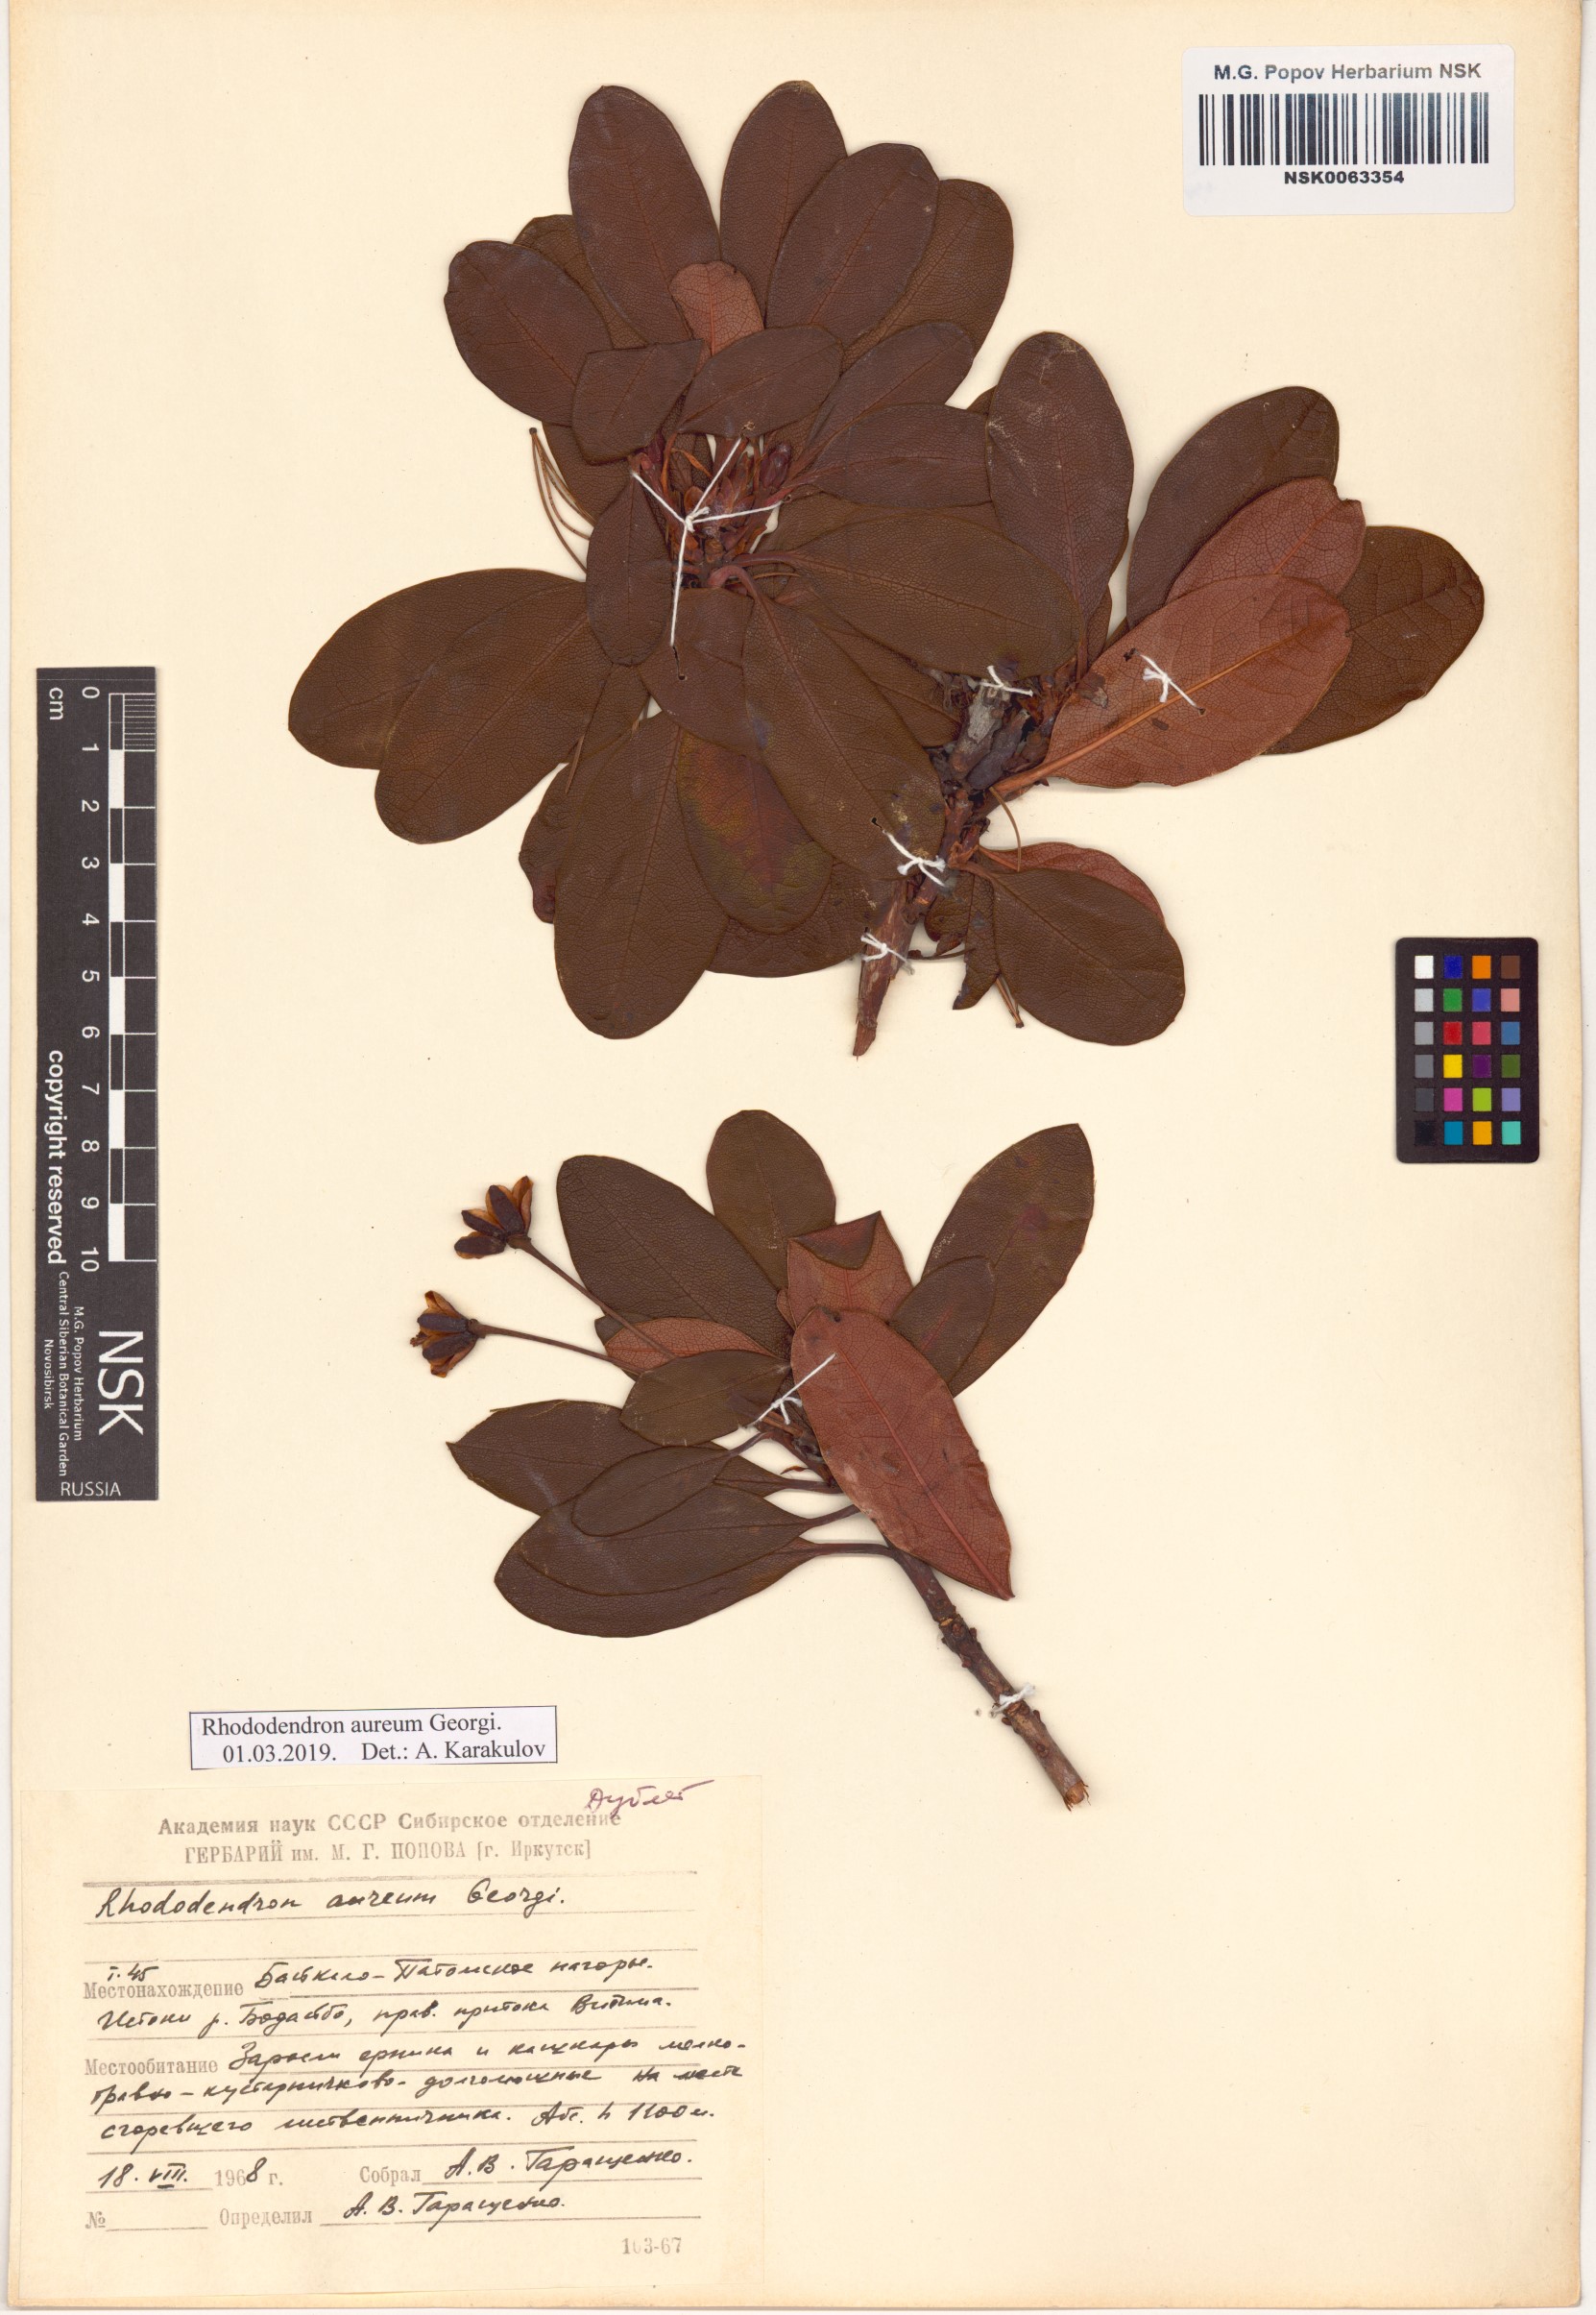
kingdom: Plantae
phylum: Tracheophyta
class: Magnoliopsida
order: Ericales
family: Ericaceae
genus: Rhododendron
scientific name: Rhododendron aureum
